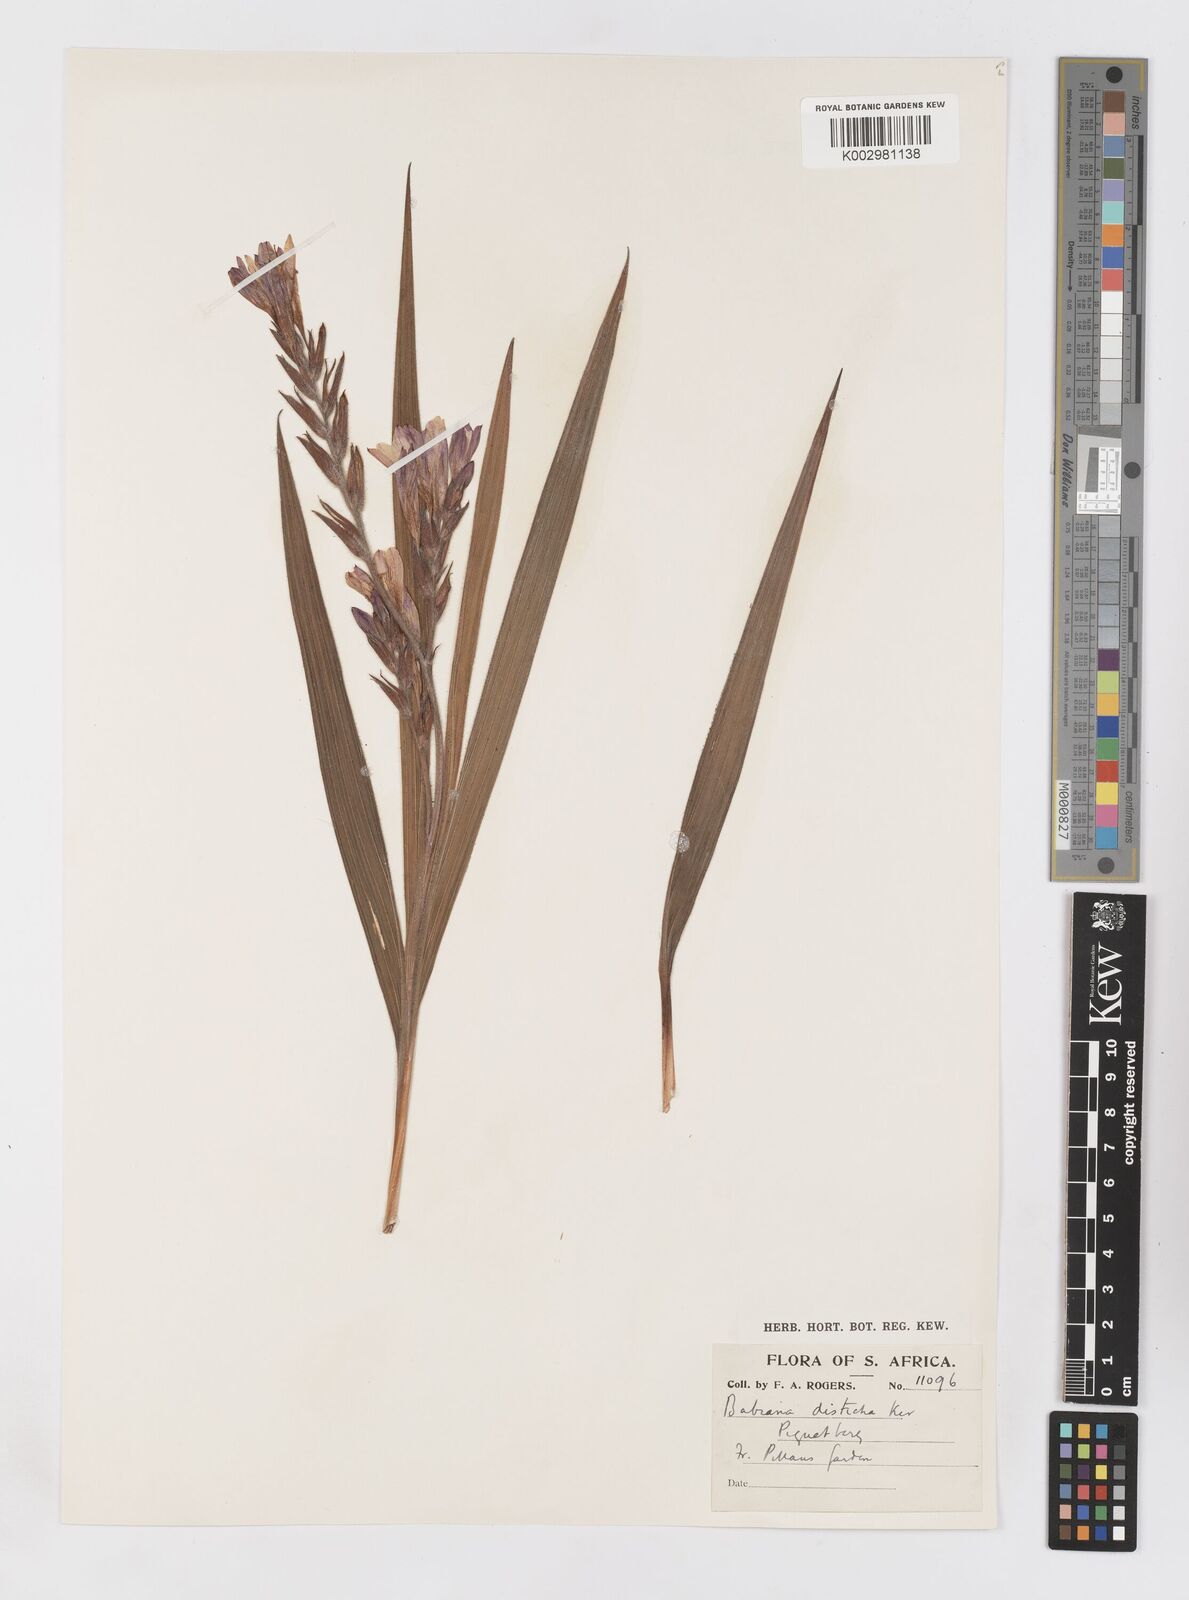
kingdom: Plantae
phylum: Tracheophyta
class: Liliopsida
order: Asparagales
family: Iridaceae
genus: Babiana
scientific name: Babiana
